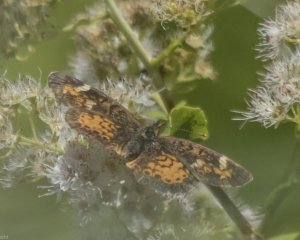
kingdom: Animalia
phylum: Arthropoda
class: Insecta
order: Lepidoptera
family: Nymphalidae
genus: Phyciodes
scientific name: Phyciodes tharos
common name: Northern Crescent
